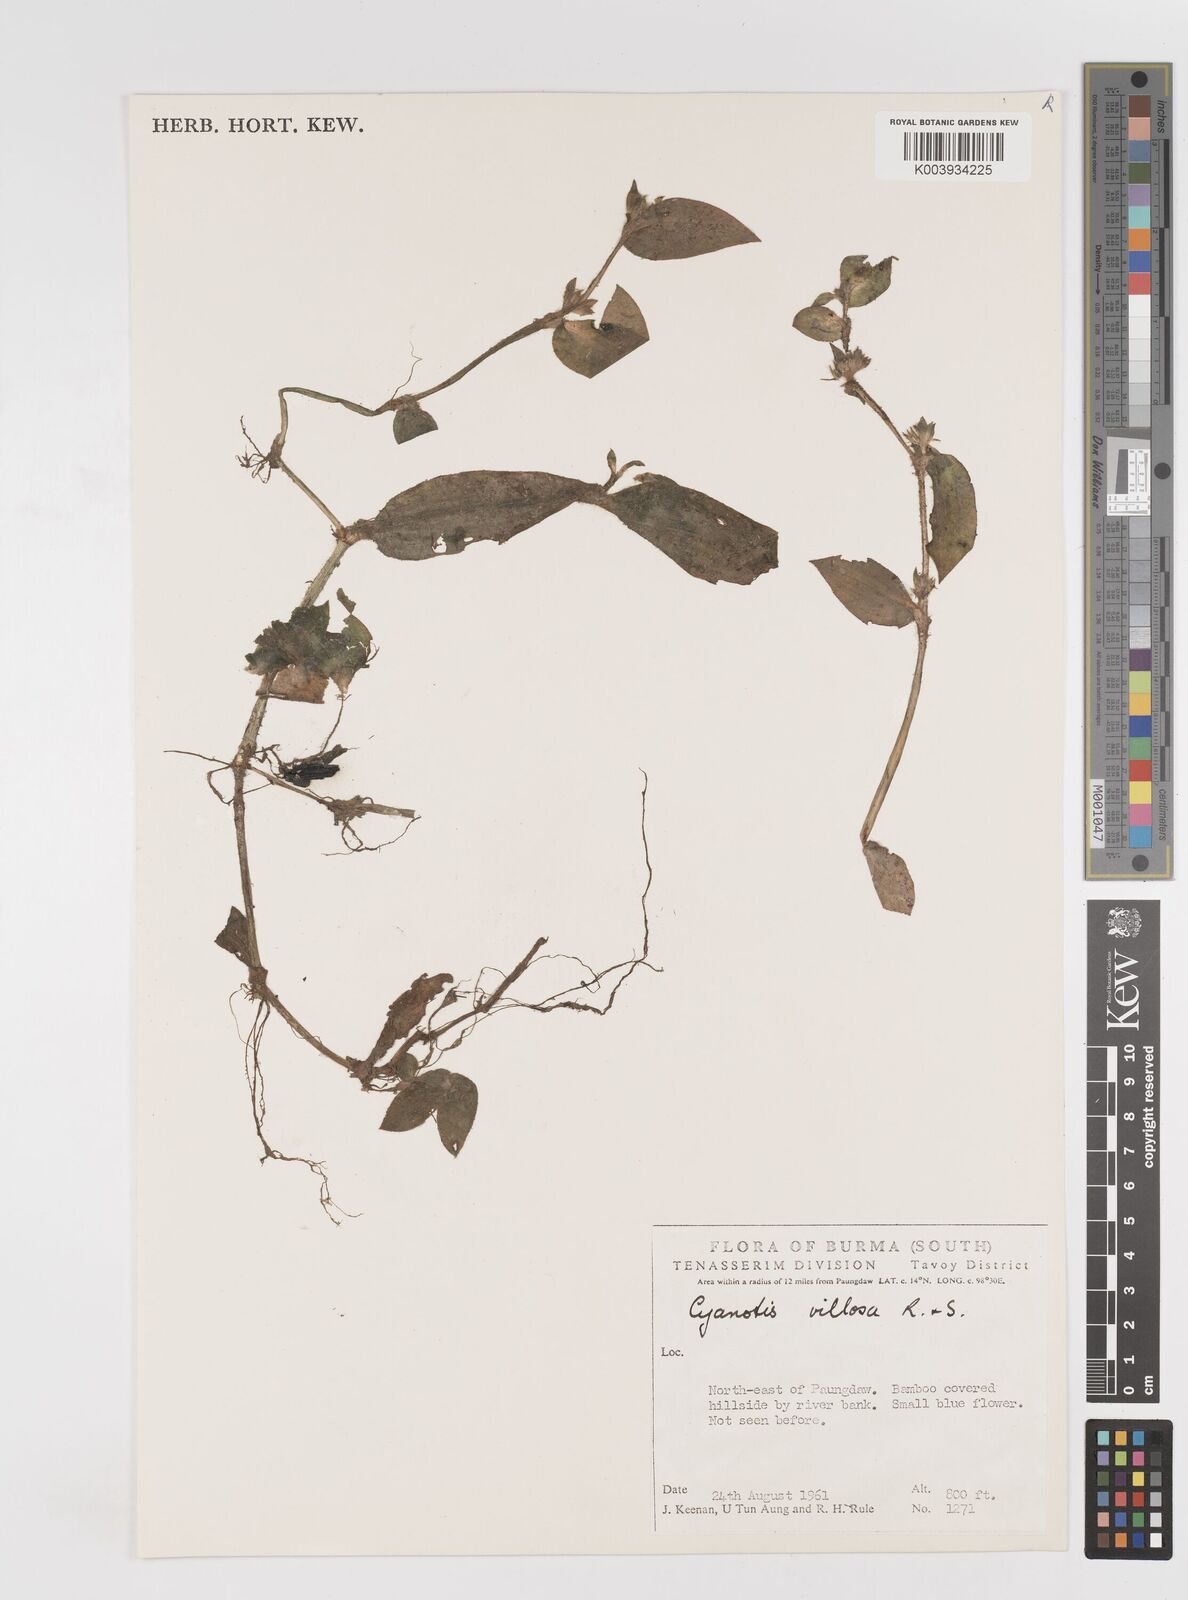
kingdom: Plantae
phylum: Tracheophyta
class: Liliopsida
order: Commelinales
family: Commelinaceae
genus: Cyanotis
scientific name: Cyanotis
